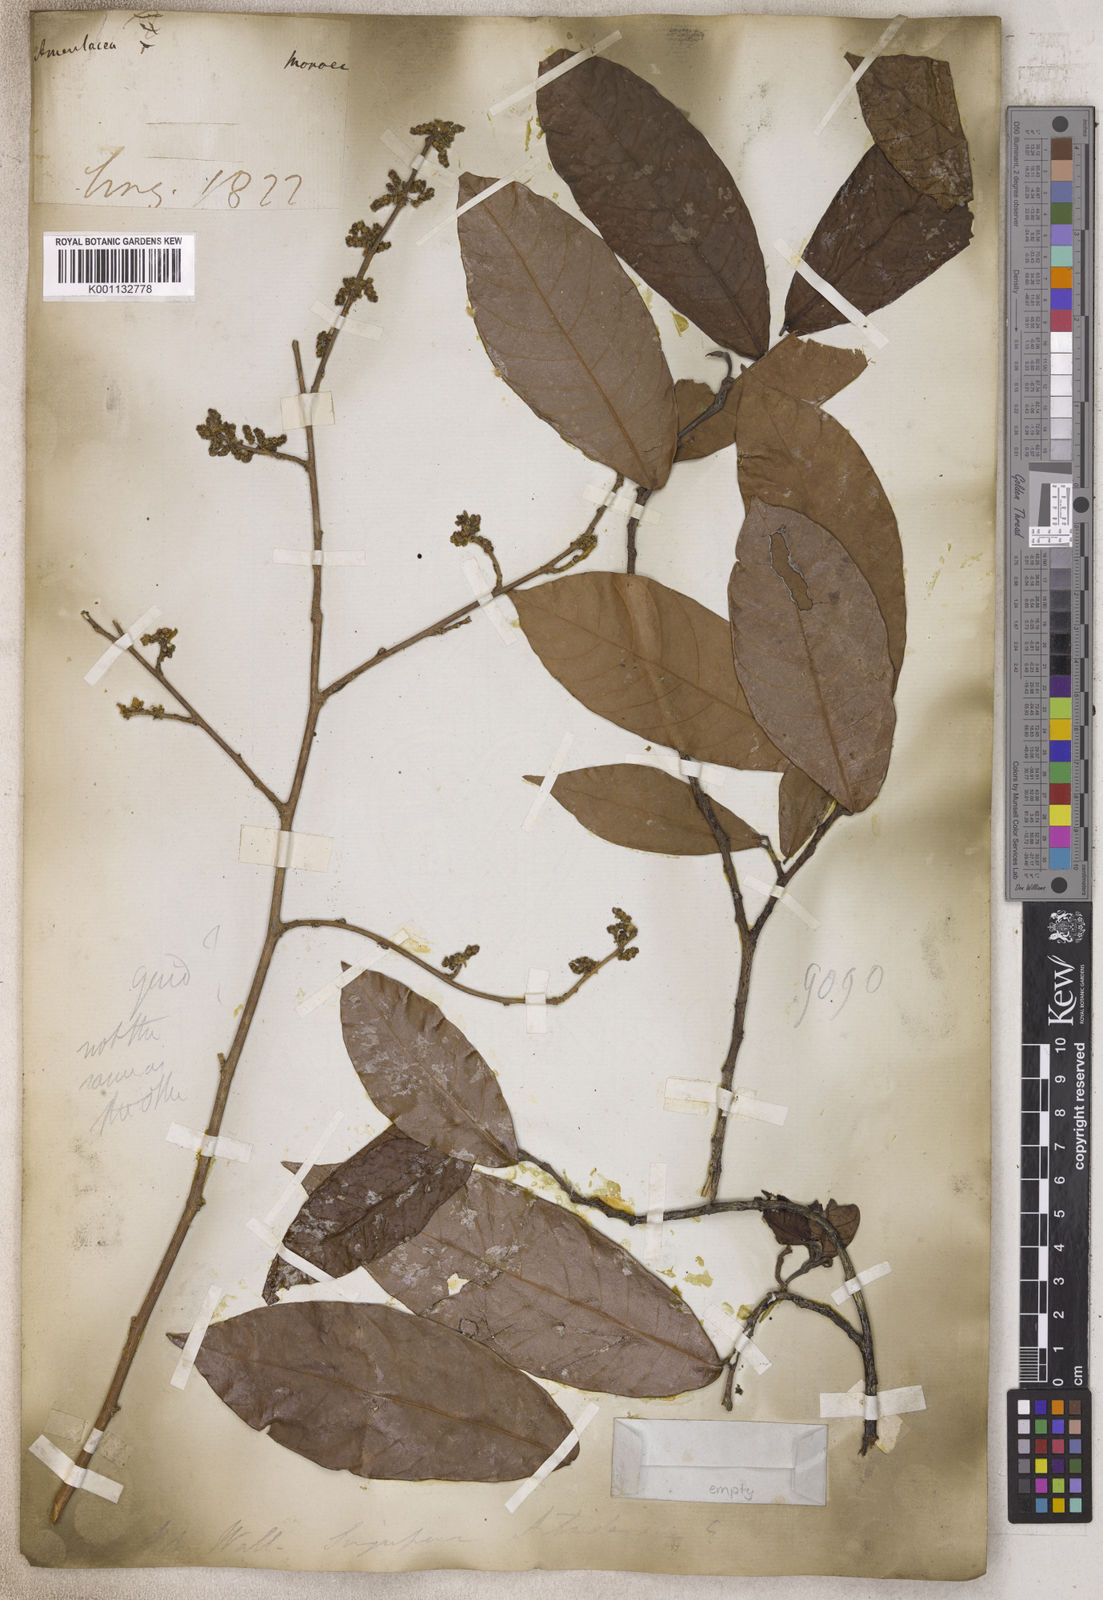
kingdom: Plantae
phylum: Tracheophyta
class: Magnoliopsida
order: Malpighiales
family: Phyllanthaceae
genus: Antidesma
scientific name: Antidesma
